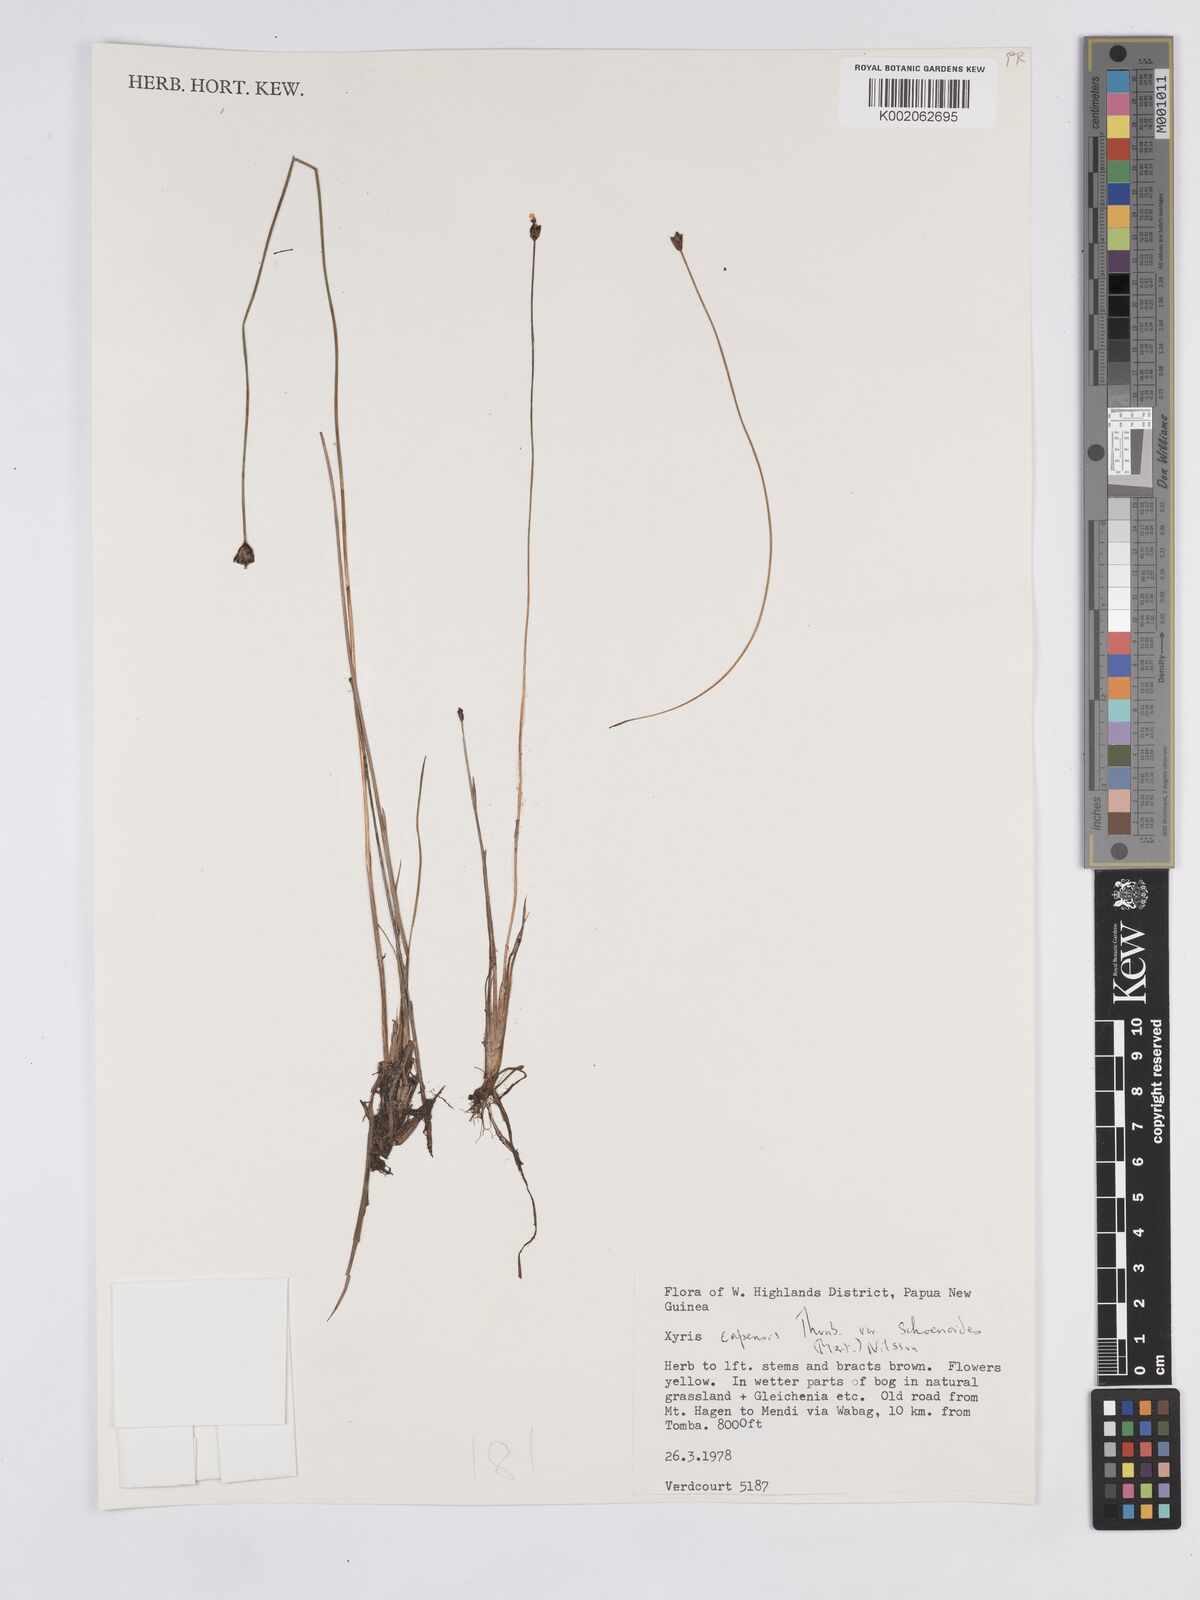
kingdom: Plantae
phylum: Tracheophyta
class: Liliopsida
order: Poales
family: Xyridaceae
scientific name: Xyridaceae
